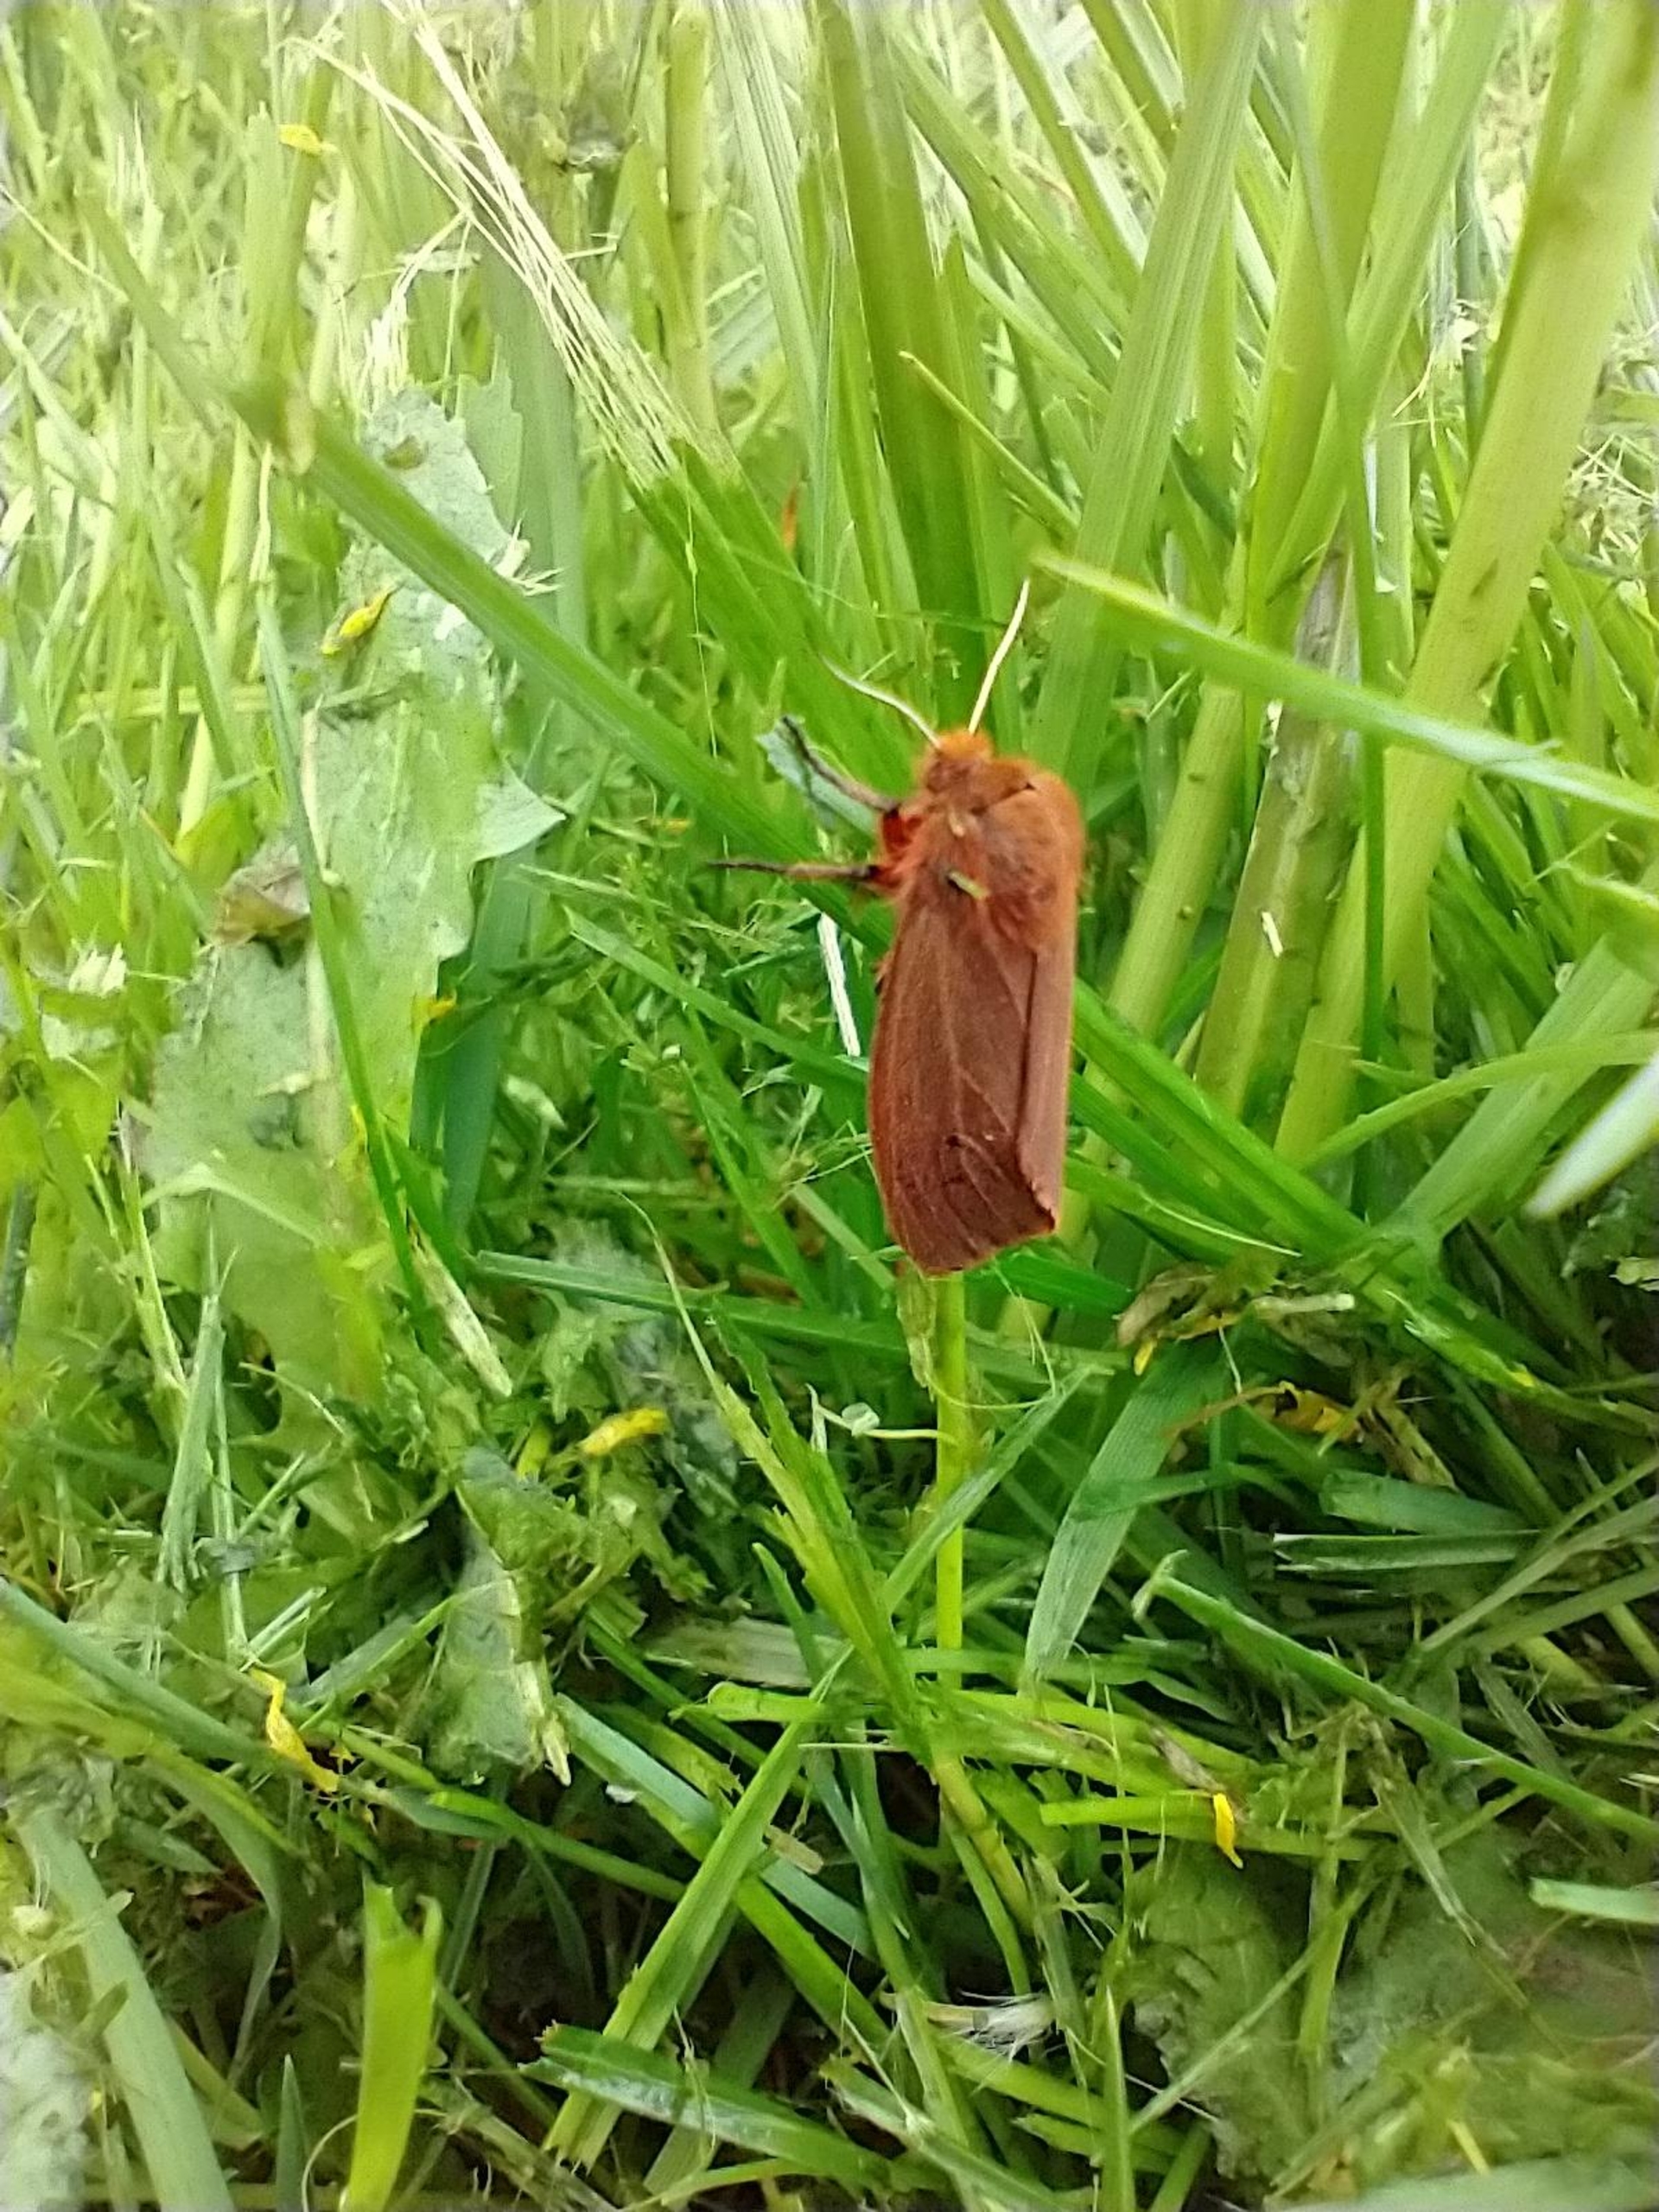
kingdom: Animalia
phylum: Arthropoda
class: Insecta
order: Lepidoptera
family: Erebidae
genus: Phragmatobia
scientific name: Phragmatobia fuliginosa
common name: Kanelbjørn
